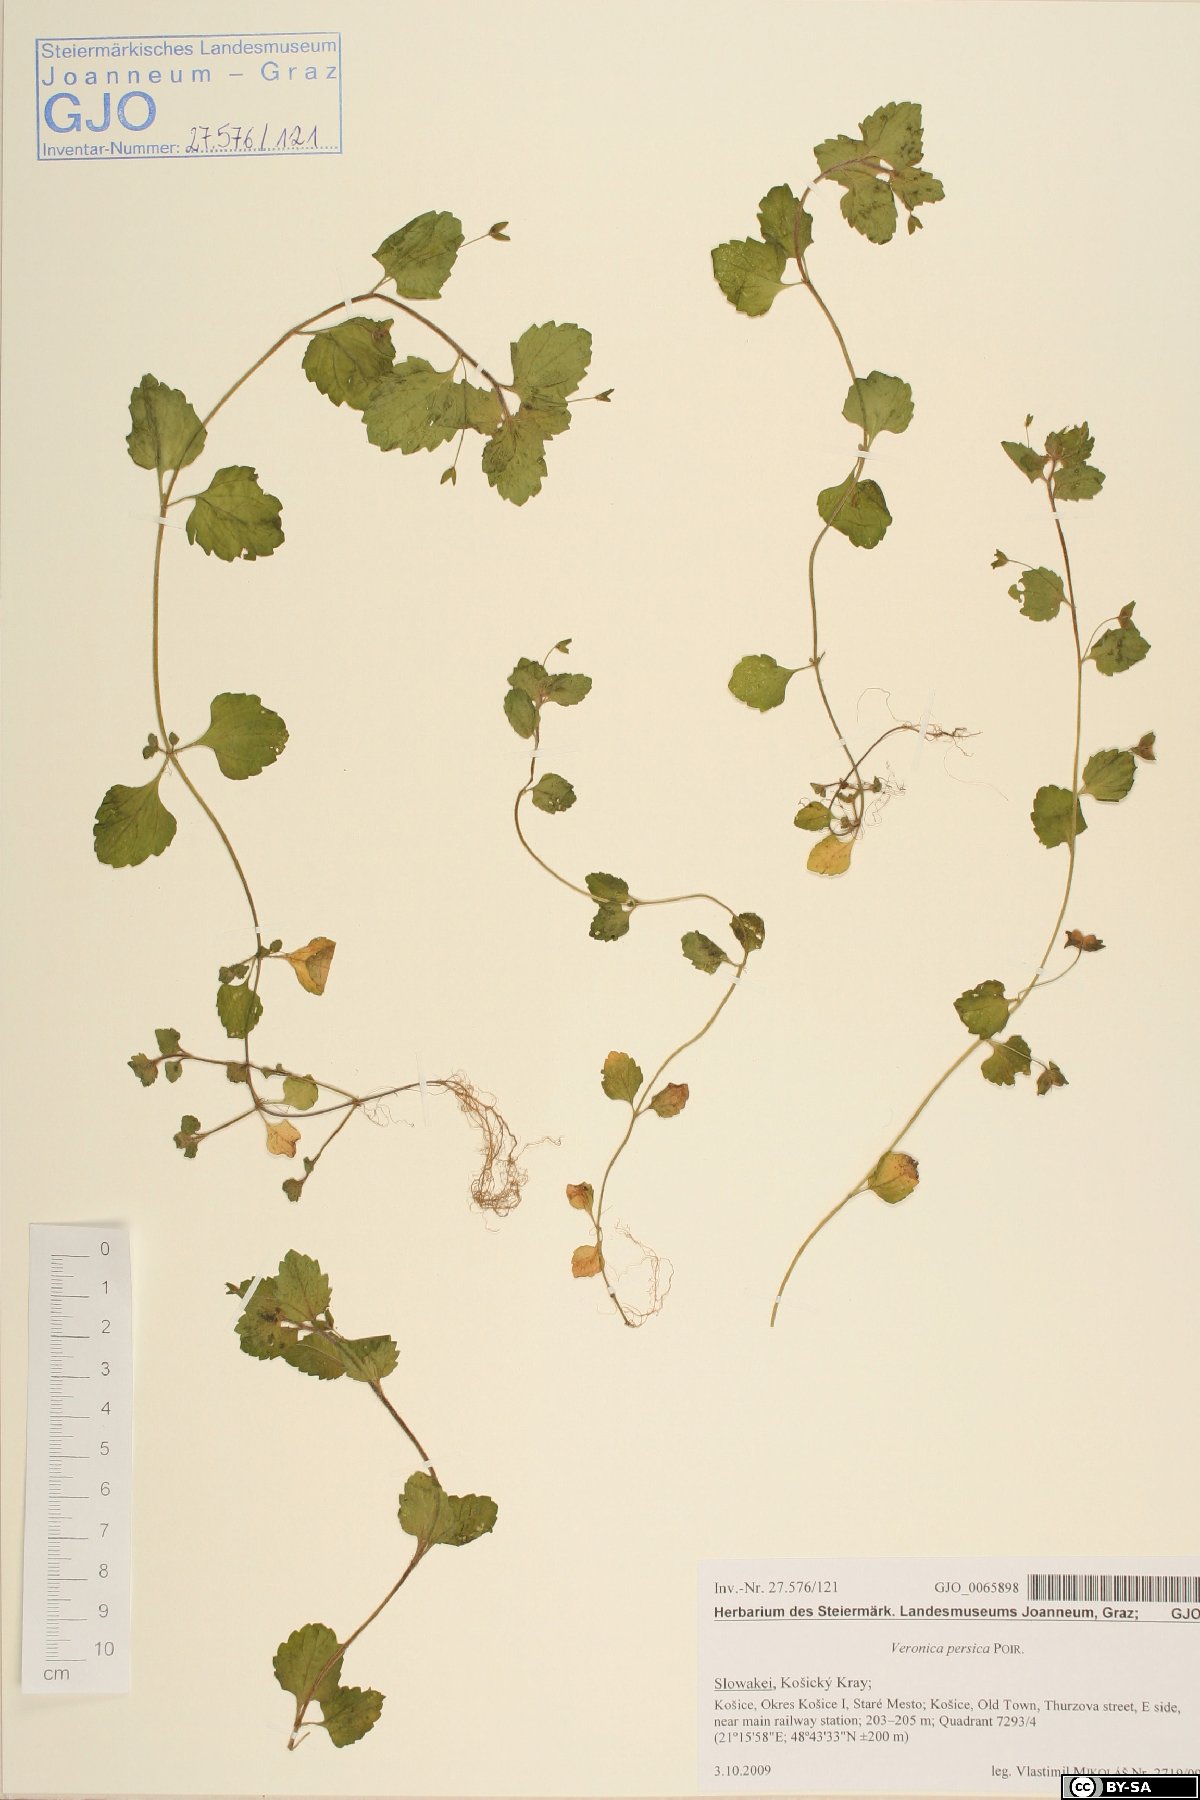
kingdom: Plantae
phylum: Tracheophyta
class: Magnoliopsida
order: Lamiales
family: Plantaginaceae
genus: Veronica
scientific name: Veronica persica
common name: Common field-speedwell
